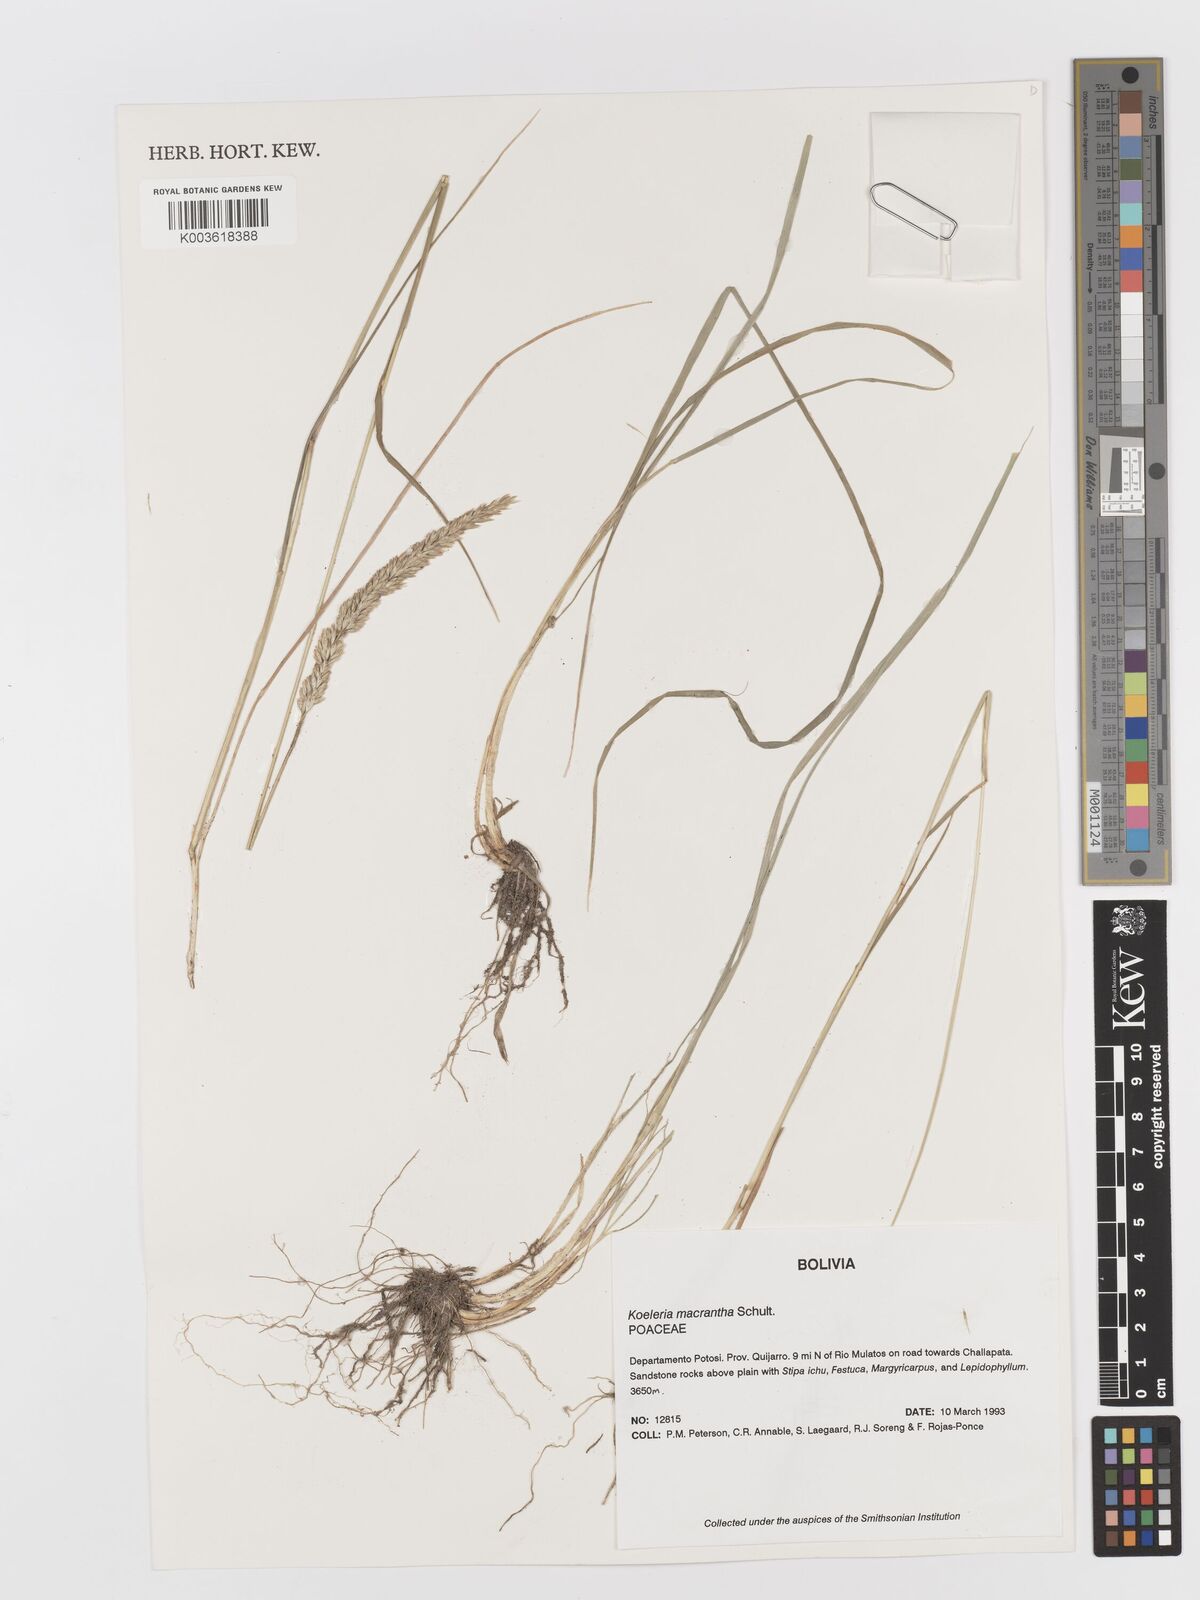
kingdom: Plantae
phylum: Tracheophyta
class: Liliopsida
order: Poales
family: Poaceae
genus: Koeleria
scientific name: Koeleria permollis
